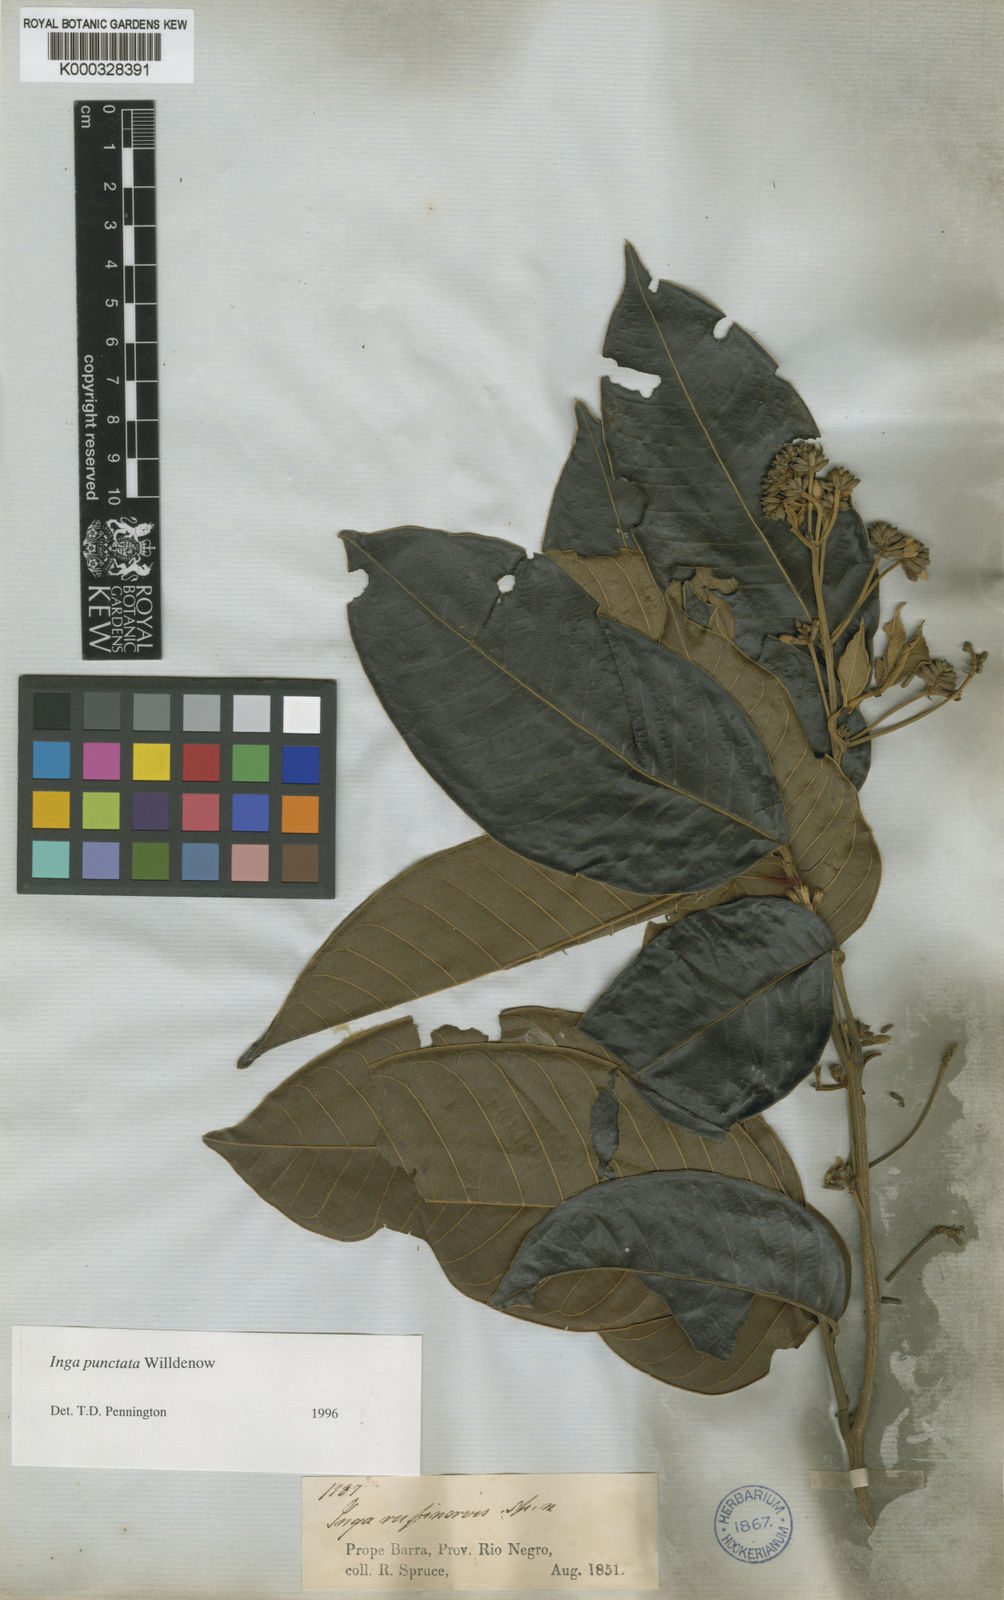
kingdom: Plantae
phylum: Tracheophyta
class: Magnoliopsida
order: Fabales
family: Fabaceae
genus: Inga
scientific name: Inga punctata
